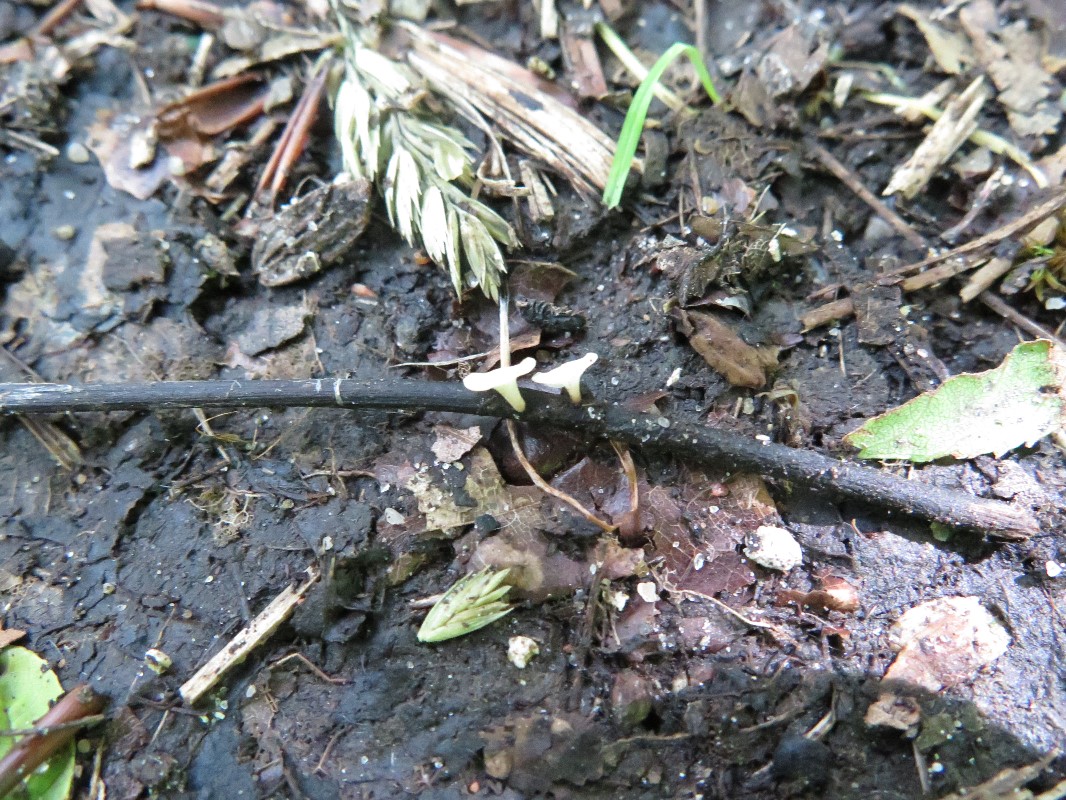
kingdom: Fungi
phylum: Ascomycota
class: Leotiomycetes
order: Helotiales
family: Helotiaceae
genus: Hymenoscyphus
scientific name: Hymenoscyphus fraxineus
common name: asketoptørre-stilkskive
